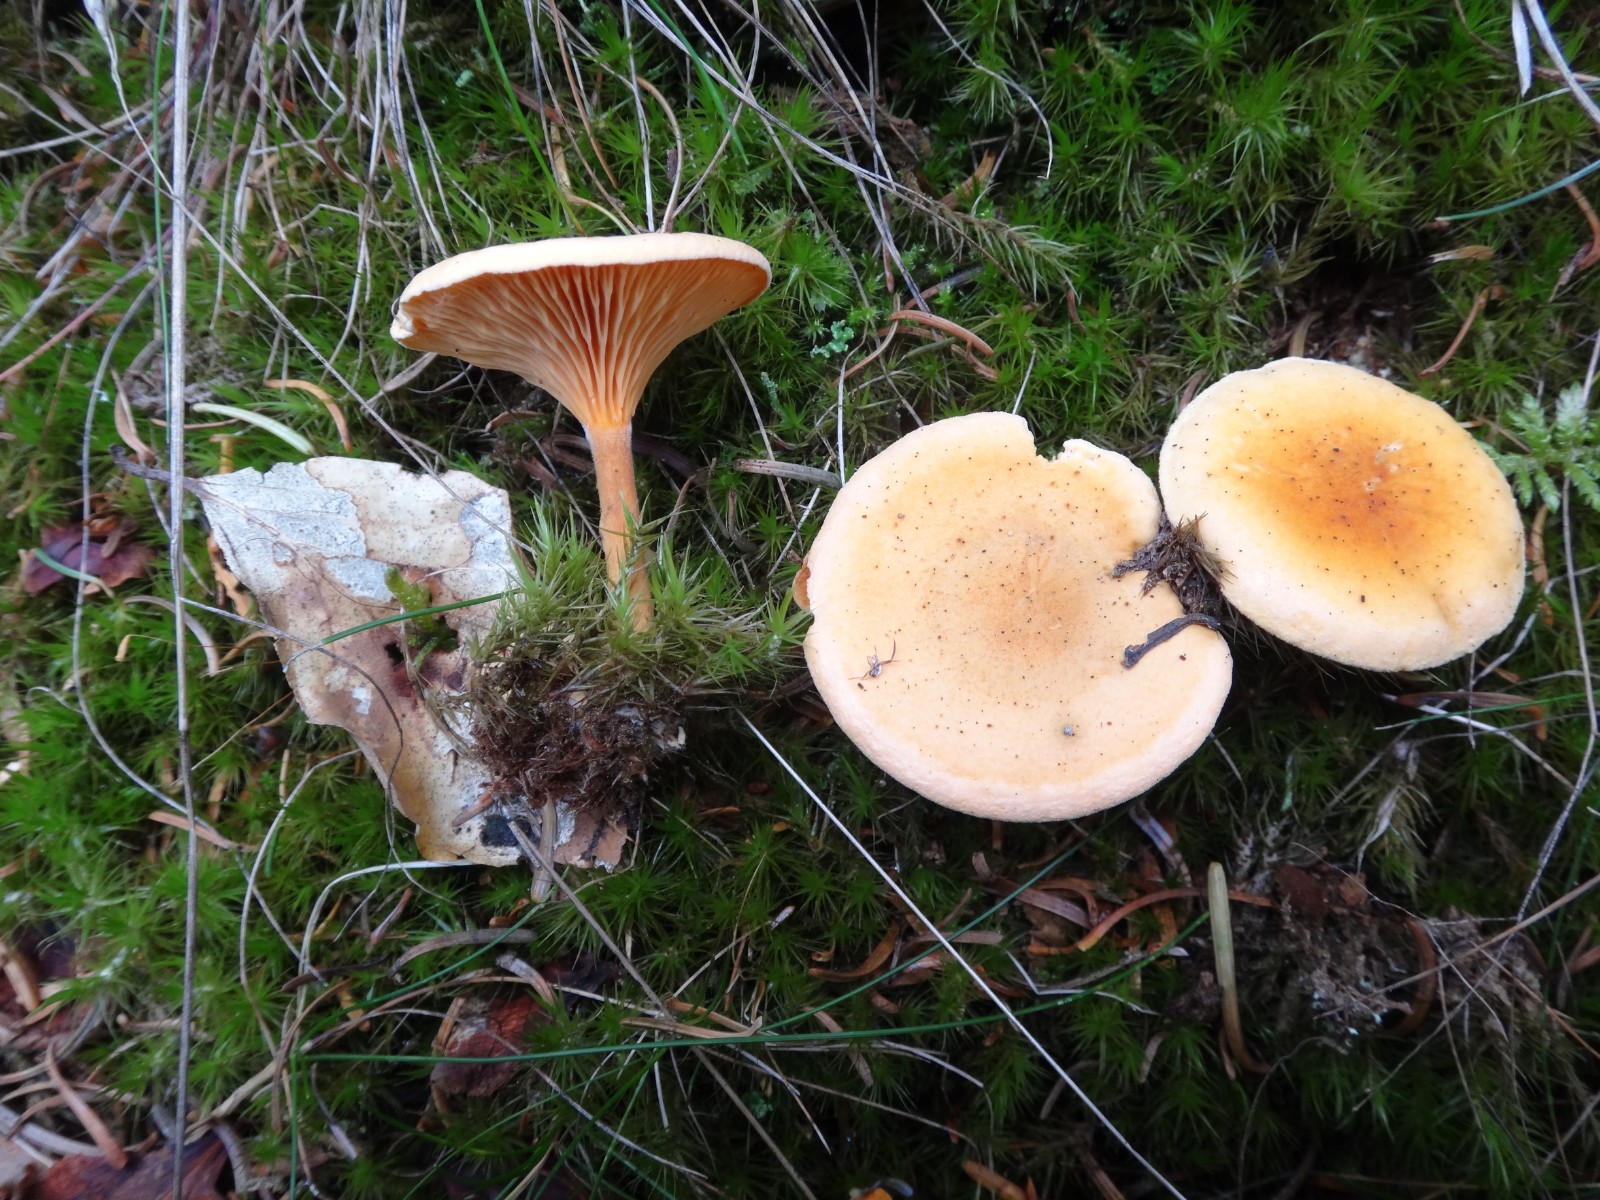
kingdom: Fungi
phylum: Basidiomycota
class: Agaricomycetes
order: Boletales
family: Hygrophoropsidaceae
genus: Hygrophoropsis
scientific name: Hygrophoropsis aurantiaca
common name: almindelig orangekantarel
